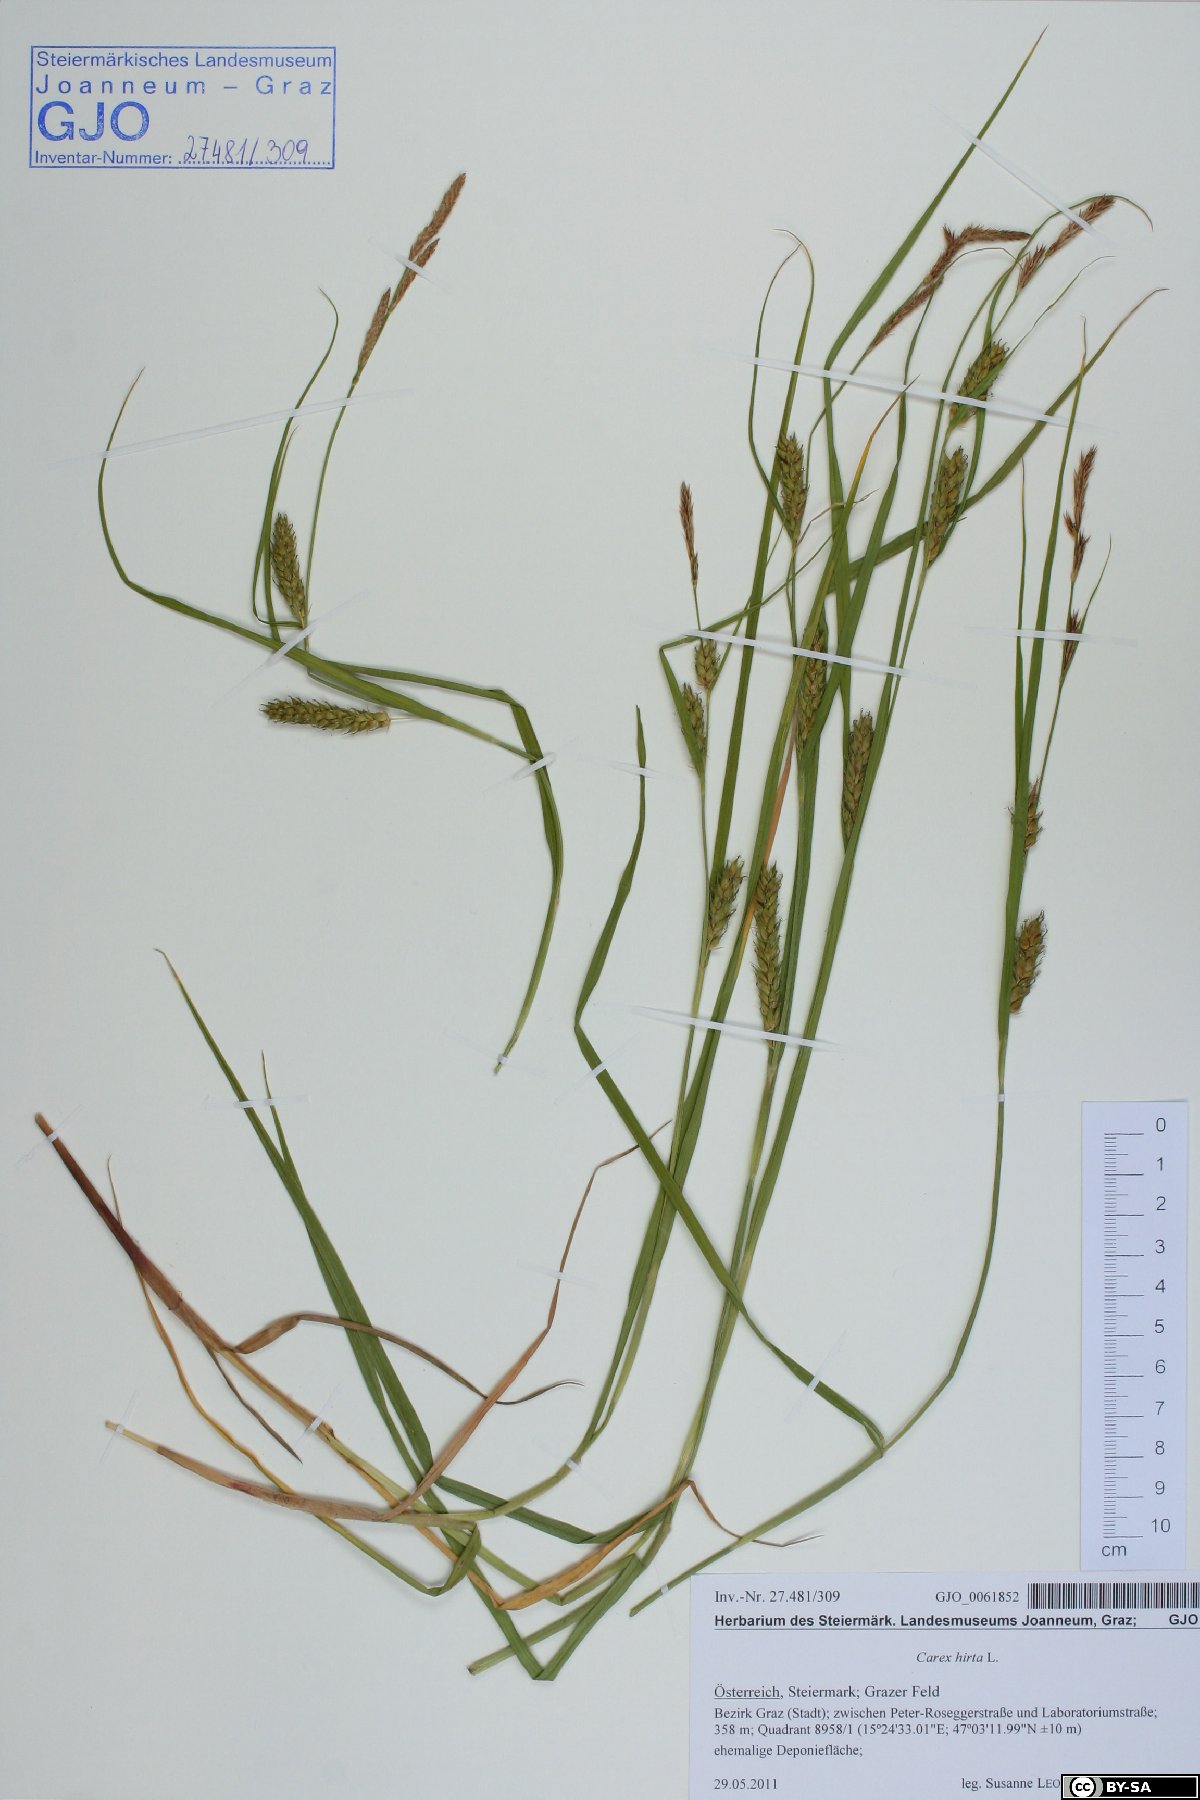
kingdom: Plantae
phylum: Tracheophyta
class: Liliopsida
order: Poales
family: Cyperaceae
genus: Carex
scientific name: Carex hirta
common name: Hairy sedge
